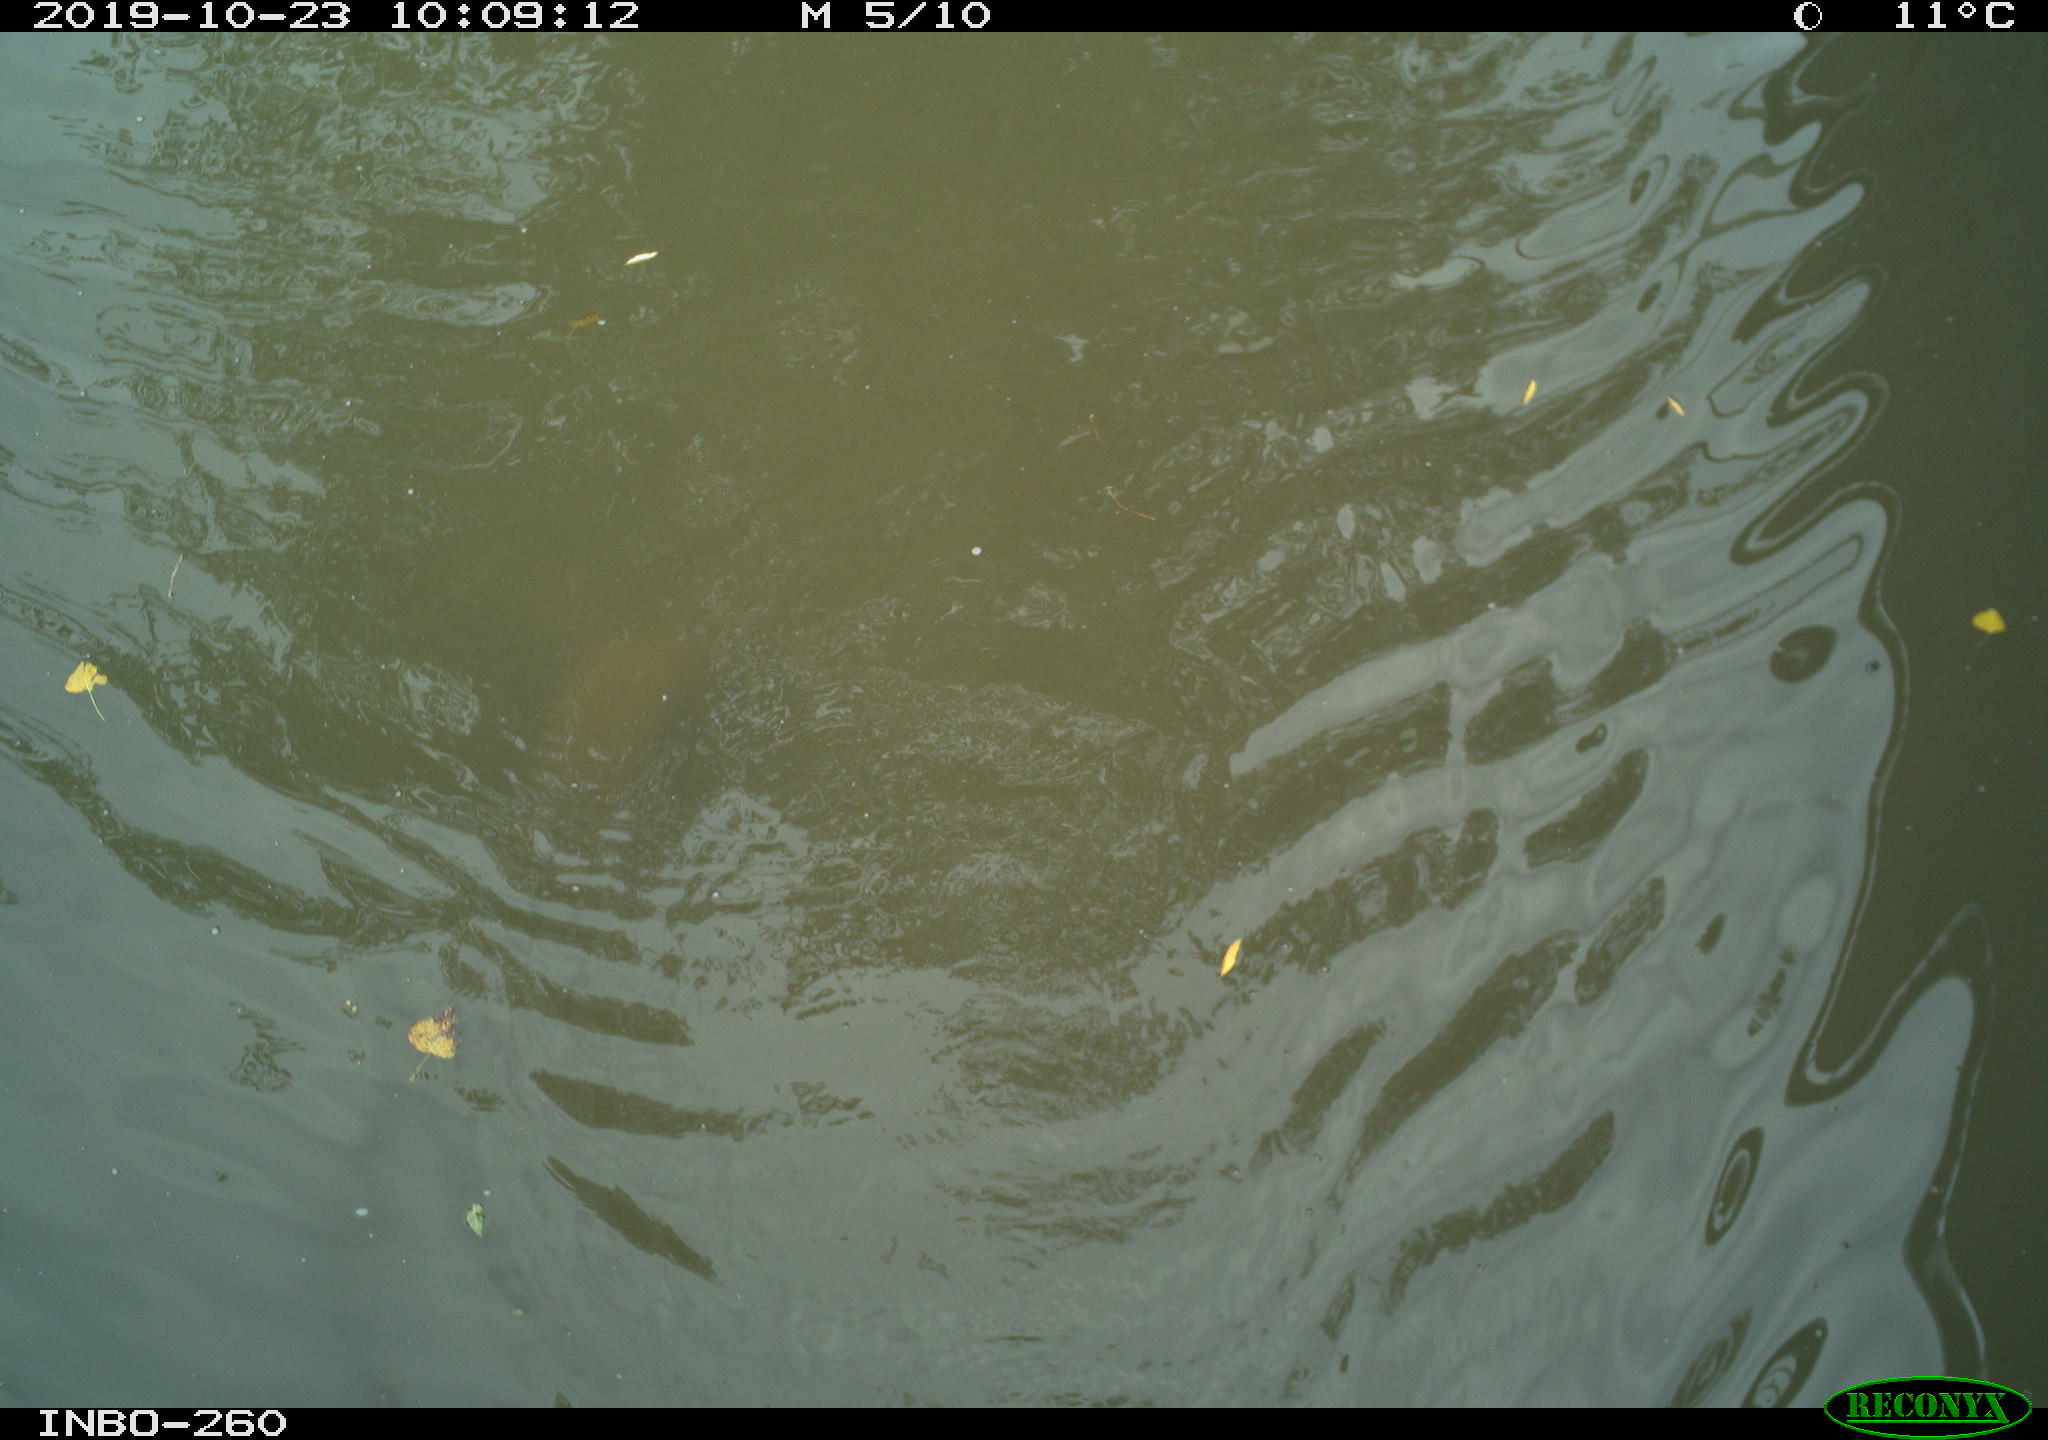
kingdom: Animalia
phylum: Chordata
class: Aves
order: Anseriformes
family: Anatidae
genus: Anas
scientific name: Anas platyrhynchos
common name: Mallard
